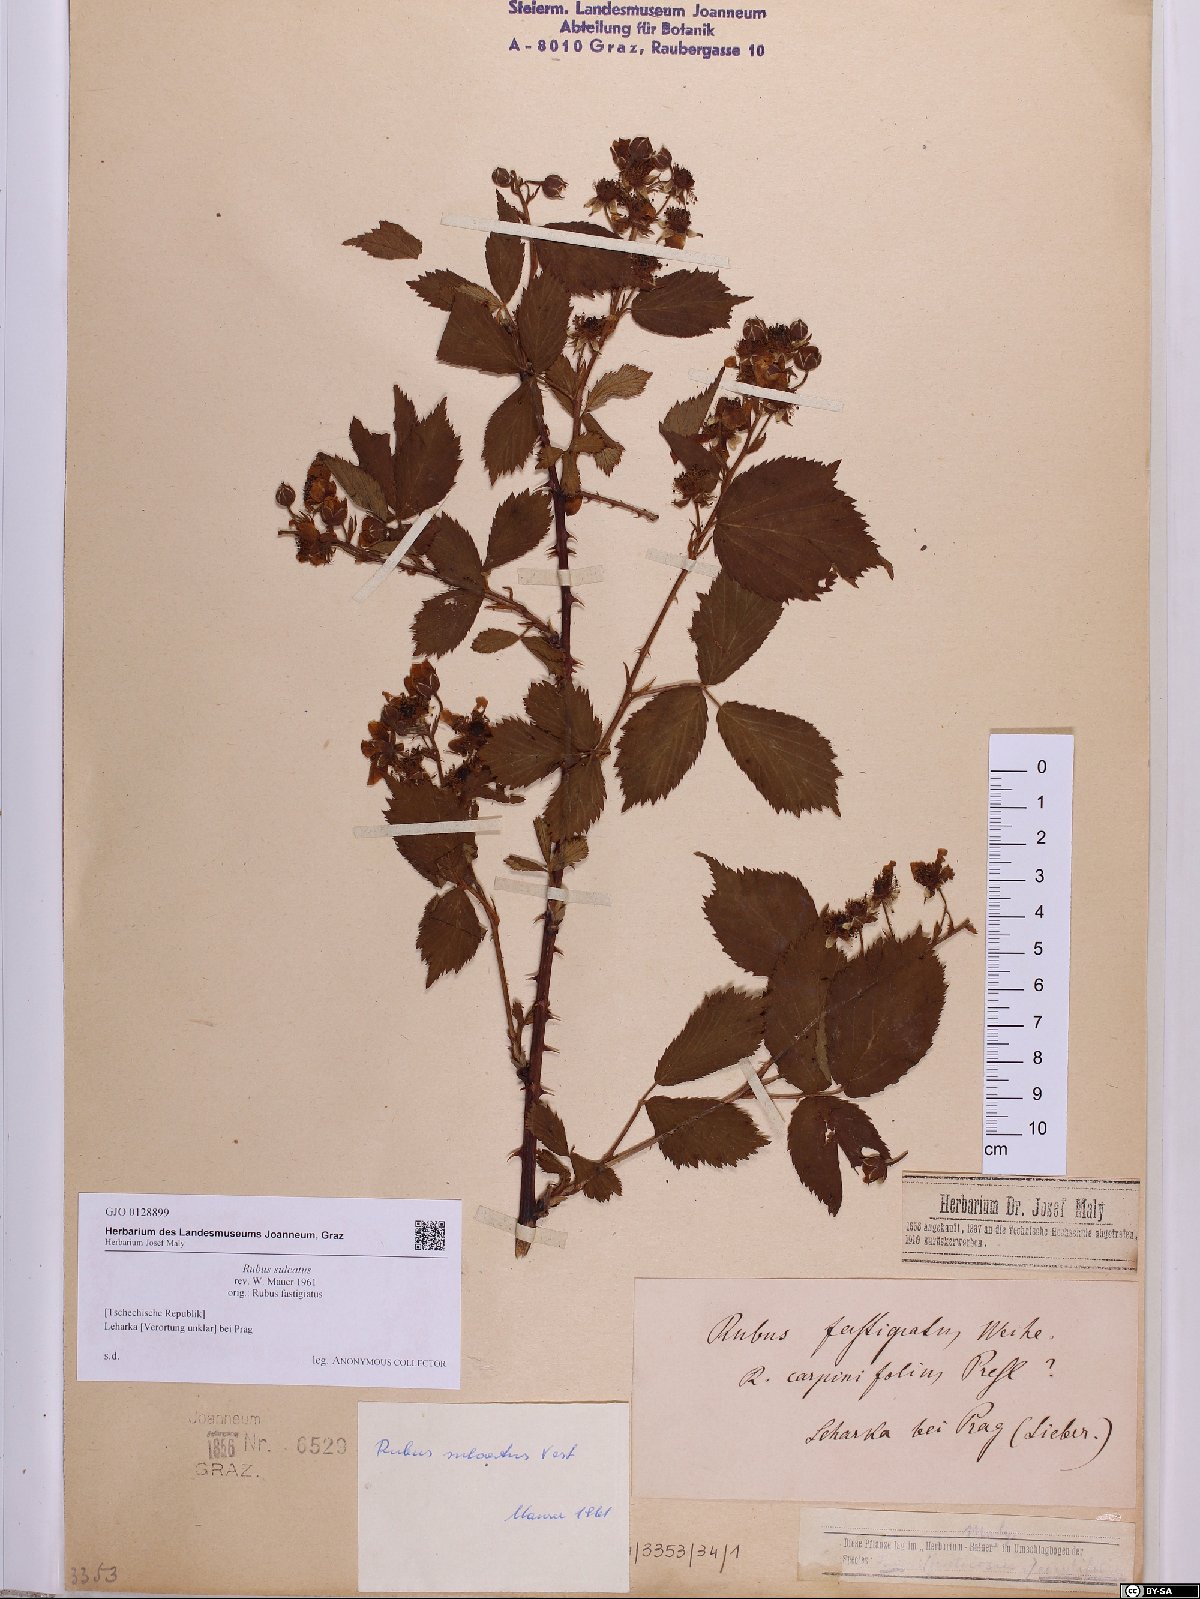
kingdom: Plantae
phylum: Tracheophyta
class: Magnoliopsida
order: Rosales
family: Rosaceae
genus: Rubus
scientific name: Rubus sulcatus
